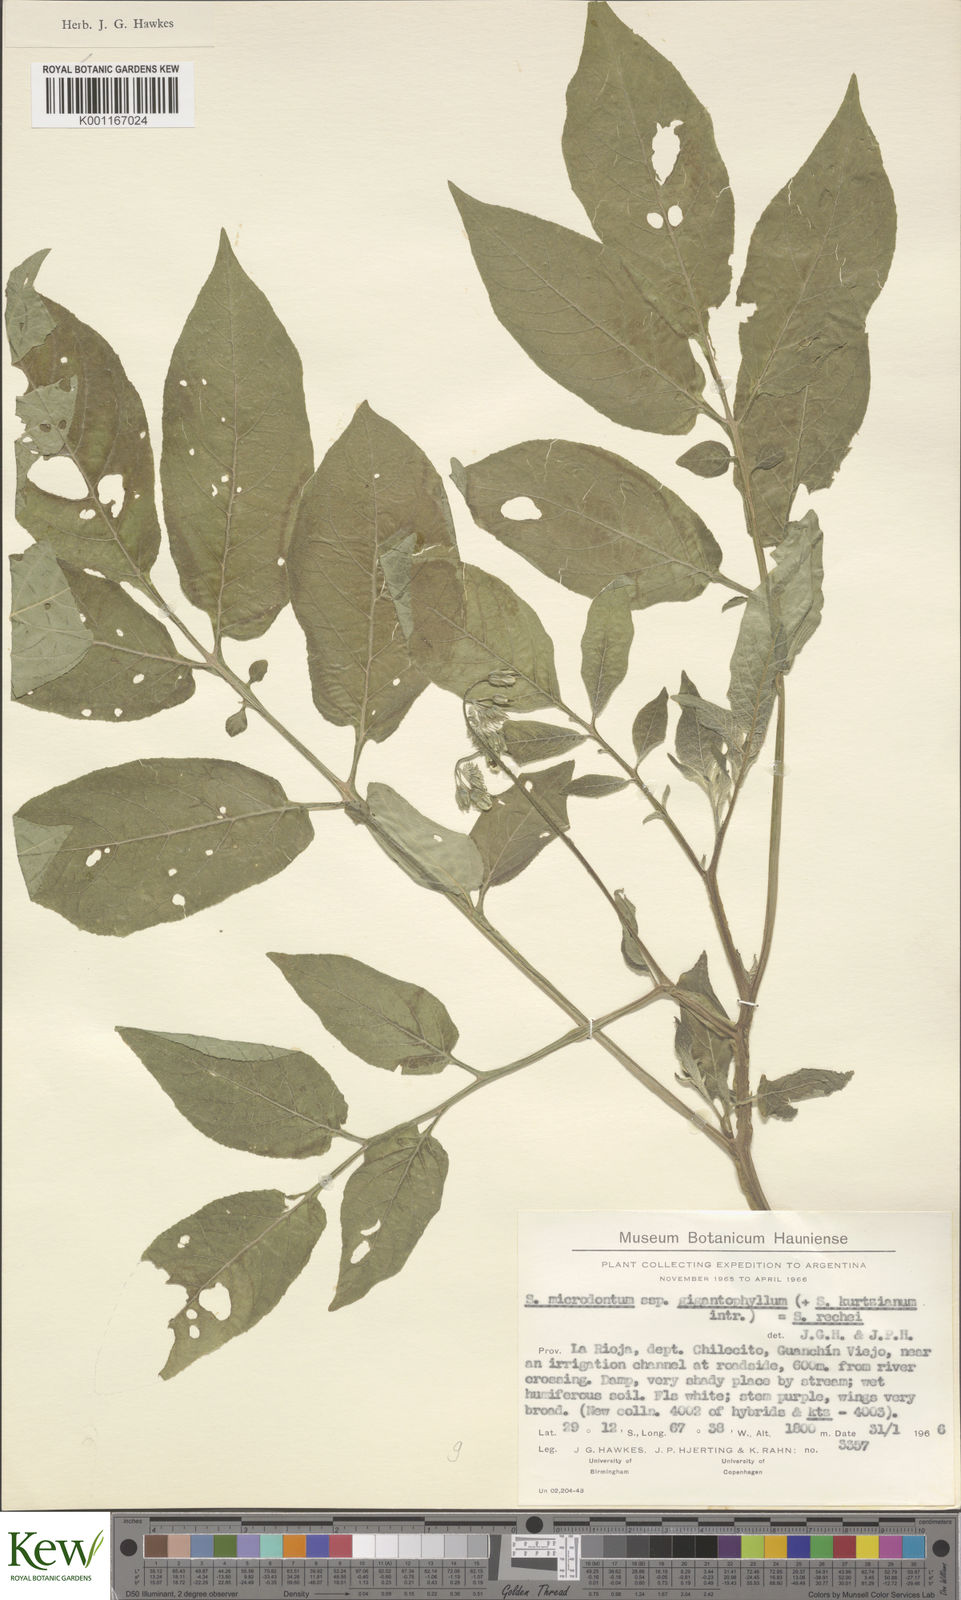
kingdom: Plantae
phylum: Tracheophyta
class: Magnoliopsida
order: Solanales
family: Solanaceae
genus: Solanum
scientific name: Solanum rechei
